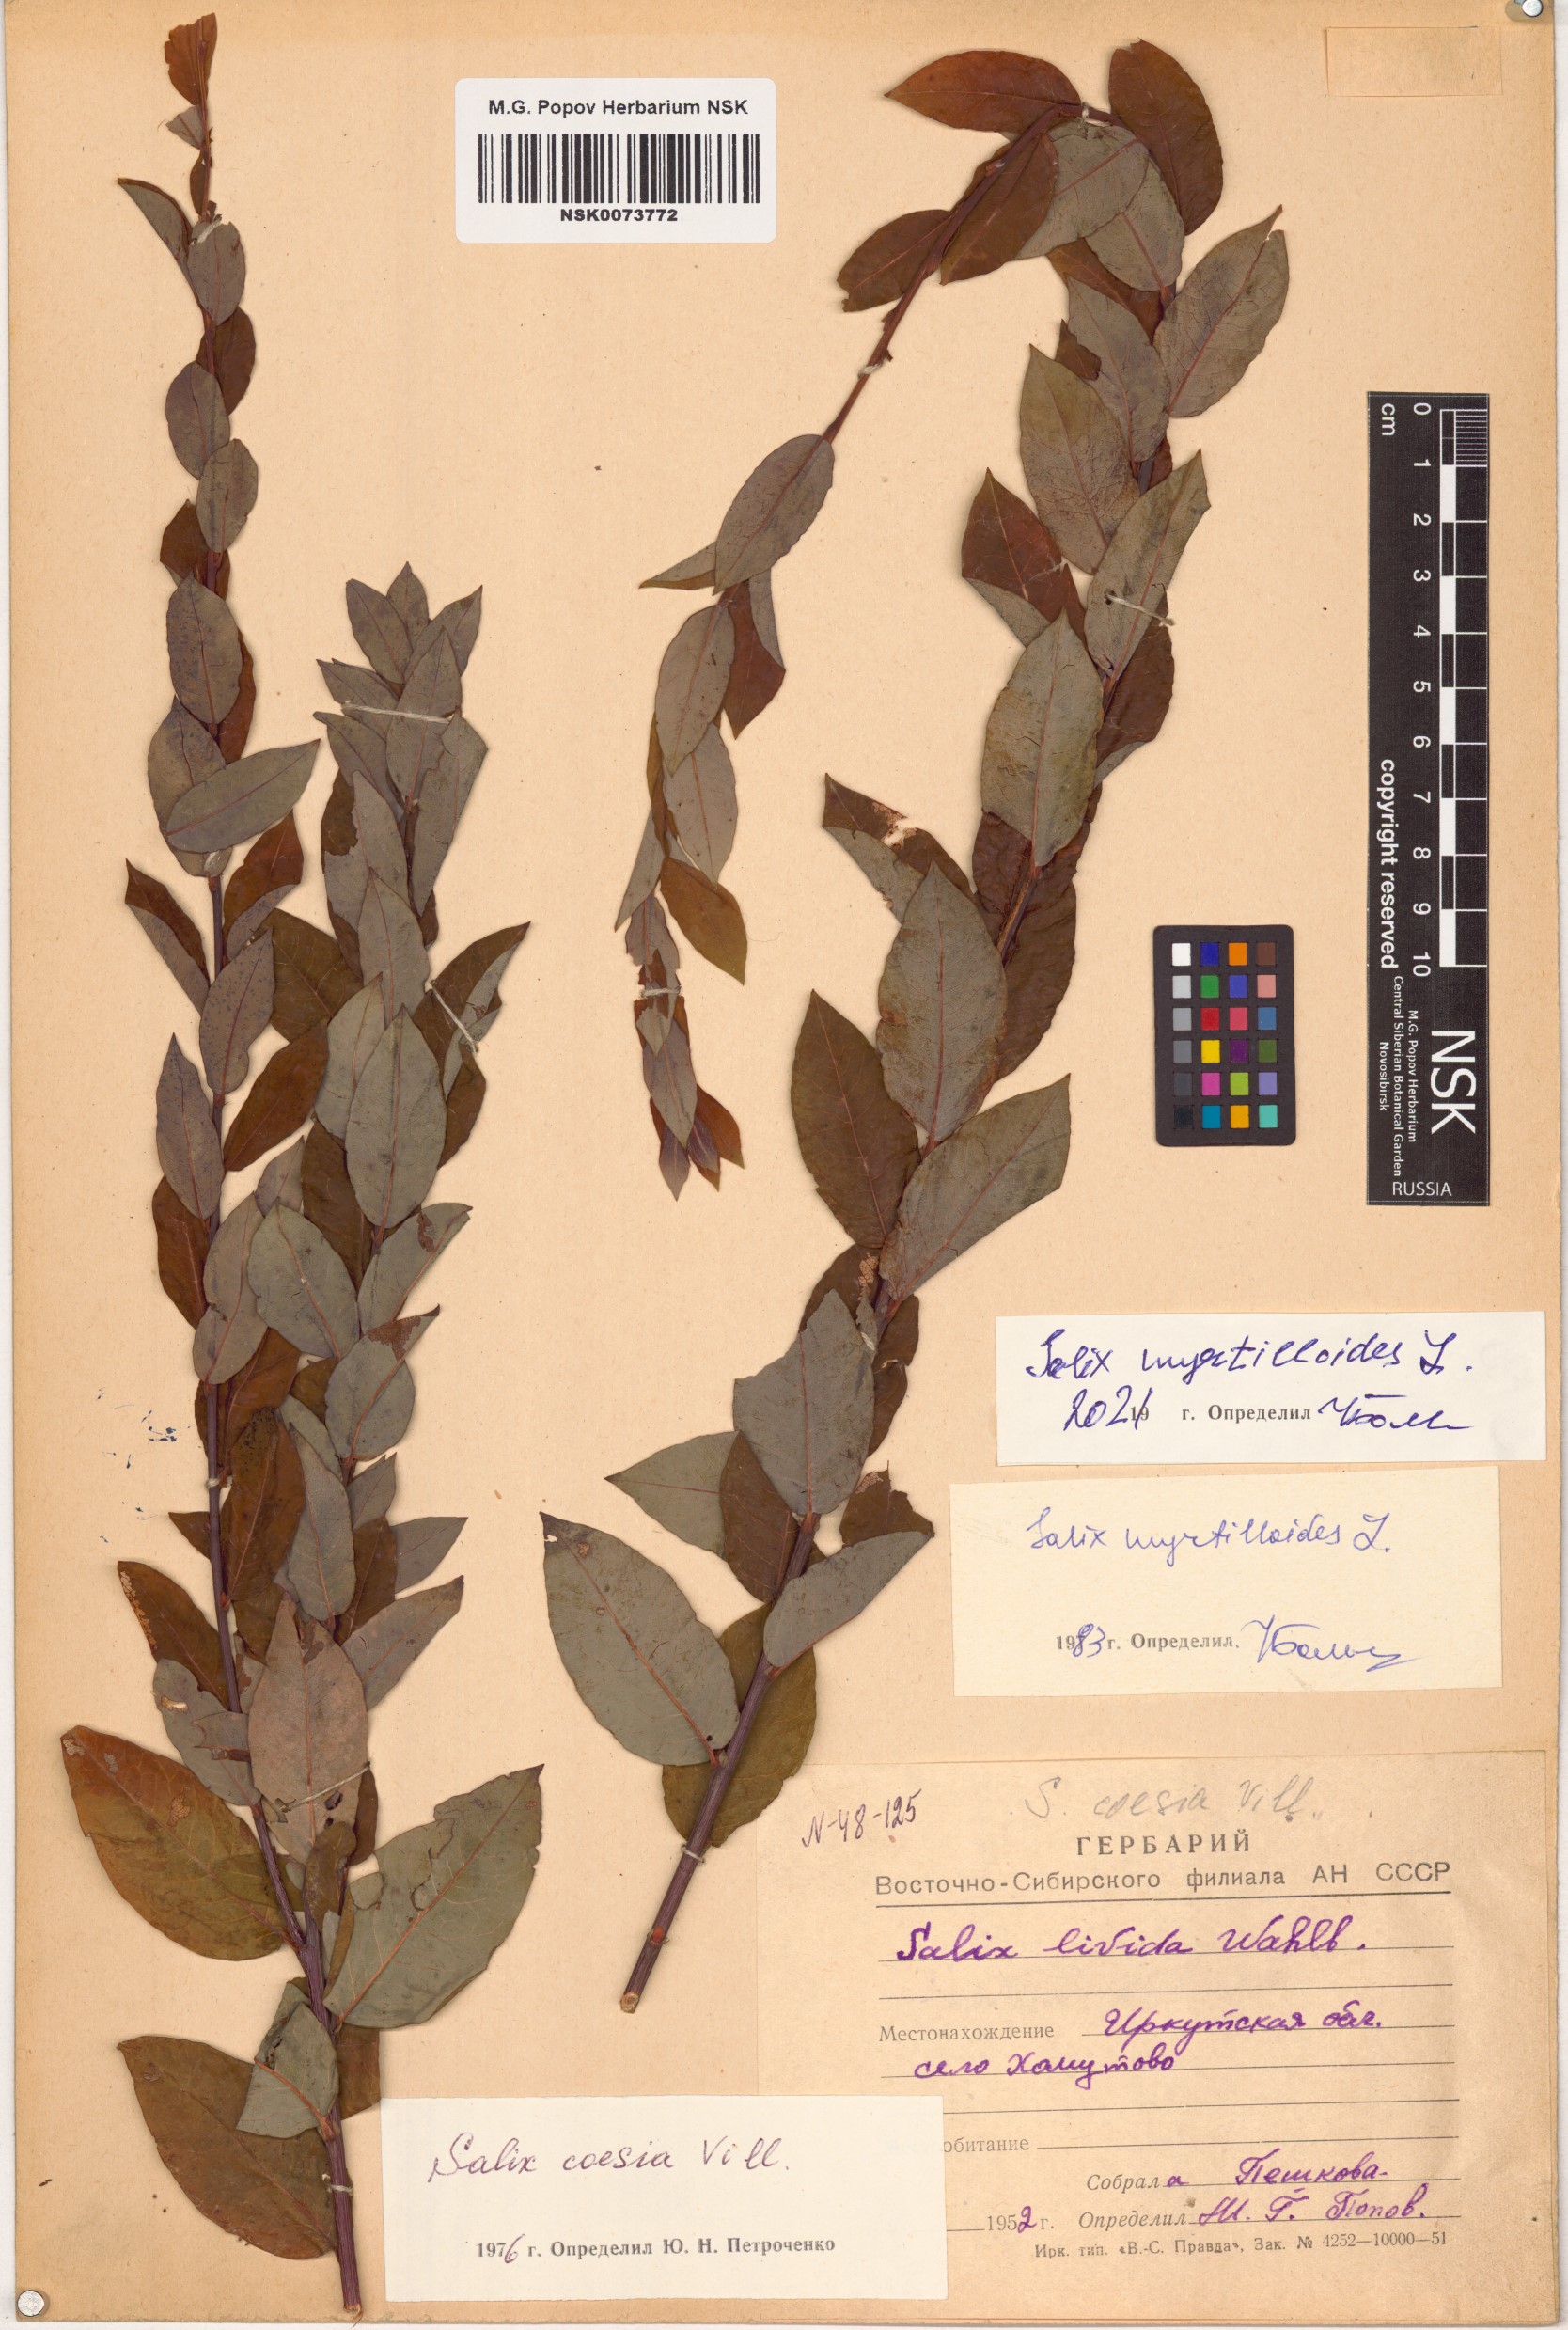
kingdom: Plantae
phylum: Tracheophyta
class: Magnoliopsida
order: Malpighiales
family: Salicaceae
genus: Salix
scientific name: Salix myrtilloides
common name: Myrtle-leaved willow
